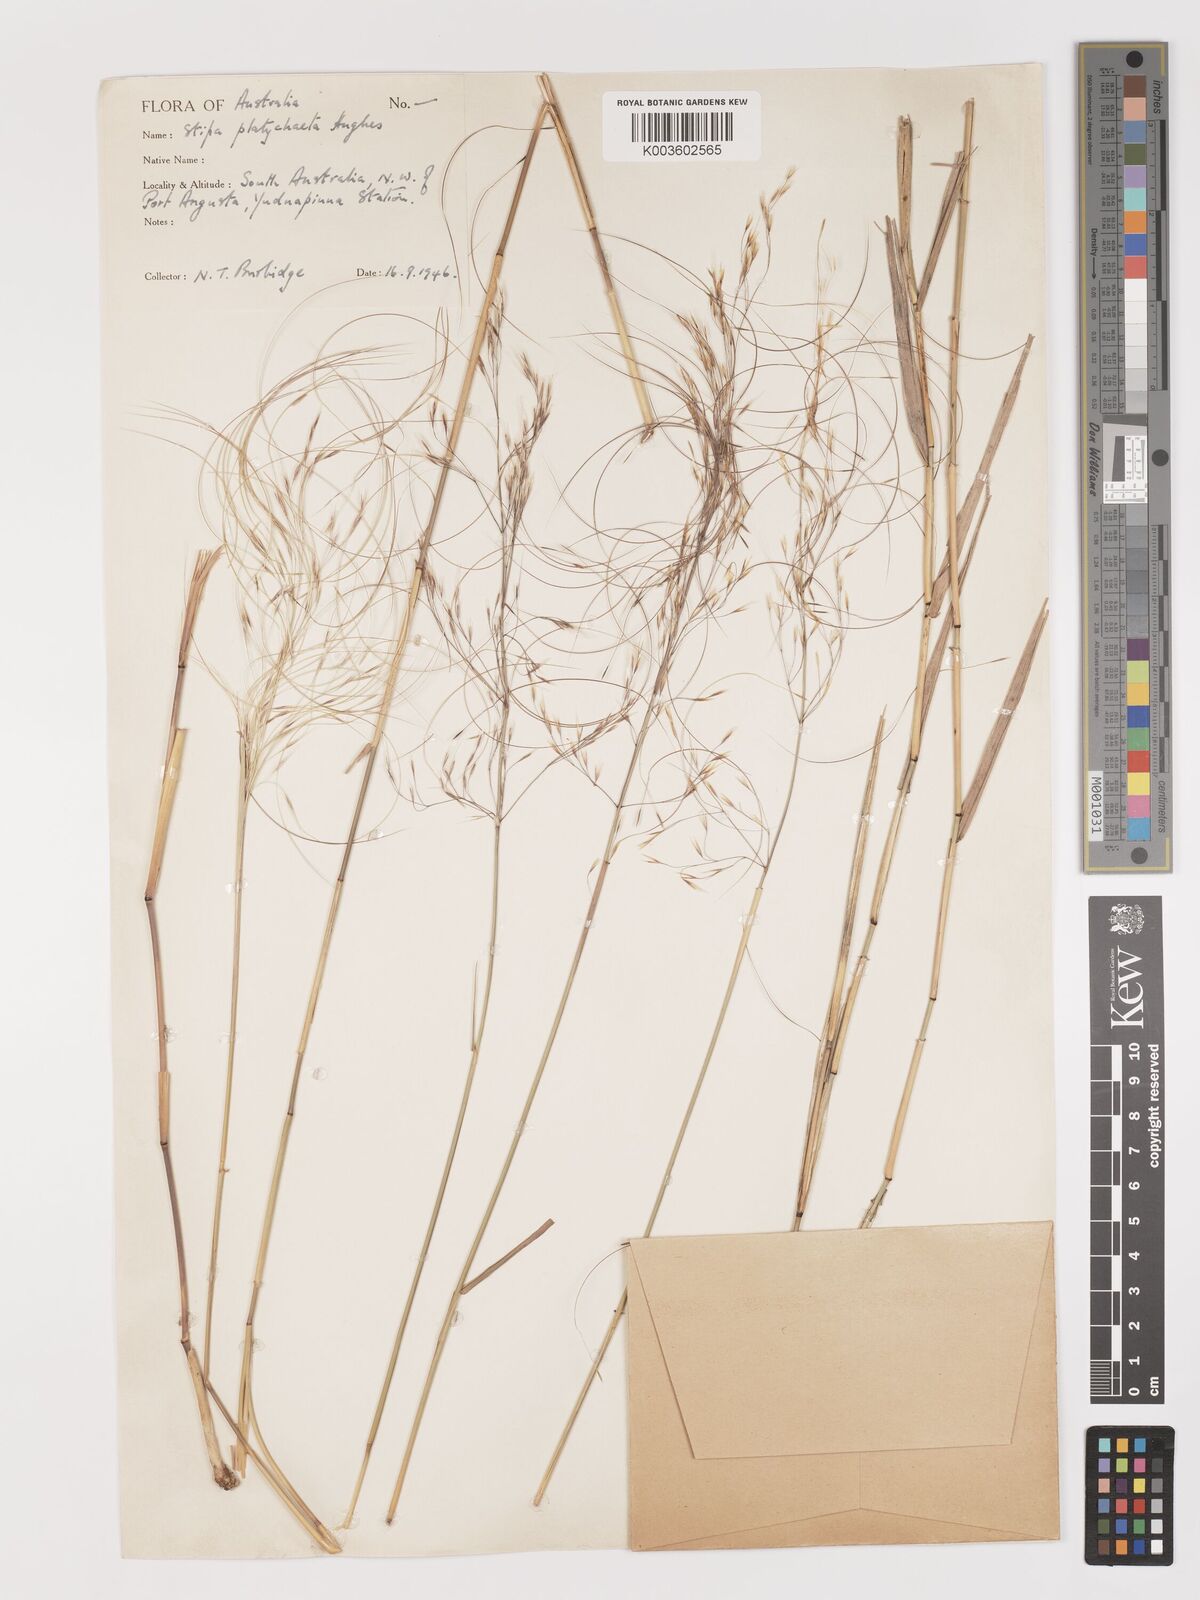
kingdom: Plantae
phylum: Tracheophyta
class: Liliopsida
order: Poales
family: Poaceae
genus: Austrostipa
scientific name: Austrostipa platychaeta
